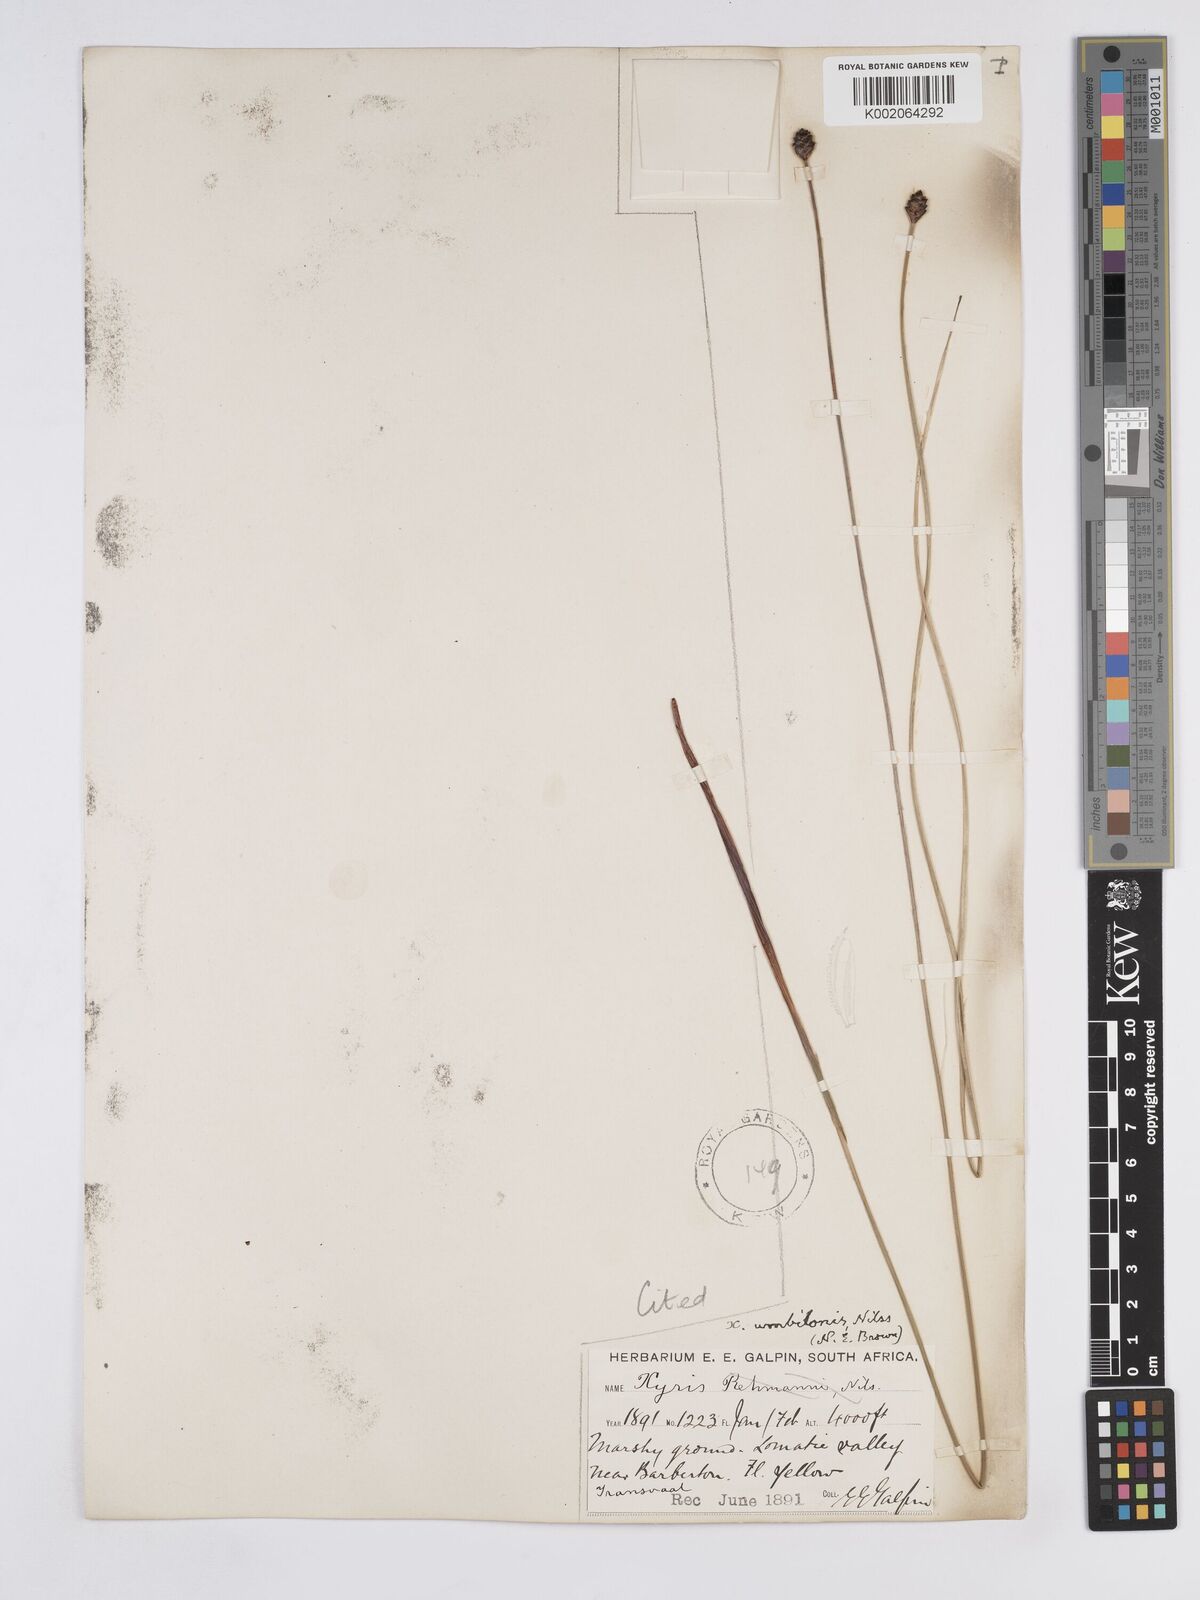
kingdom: Plantae
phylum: Tracheophyta
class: Liliopsida
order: Poales
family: Xyridaceae
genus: Xyris
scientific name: Xyris congensis
